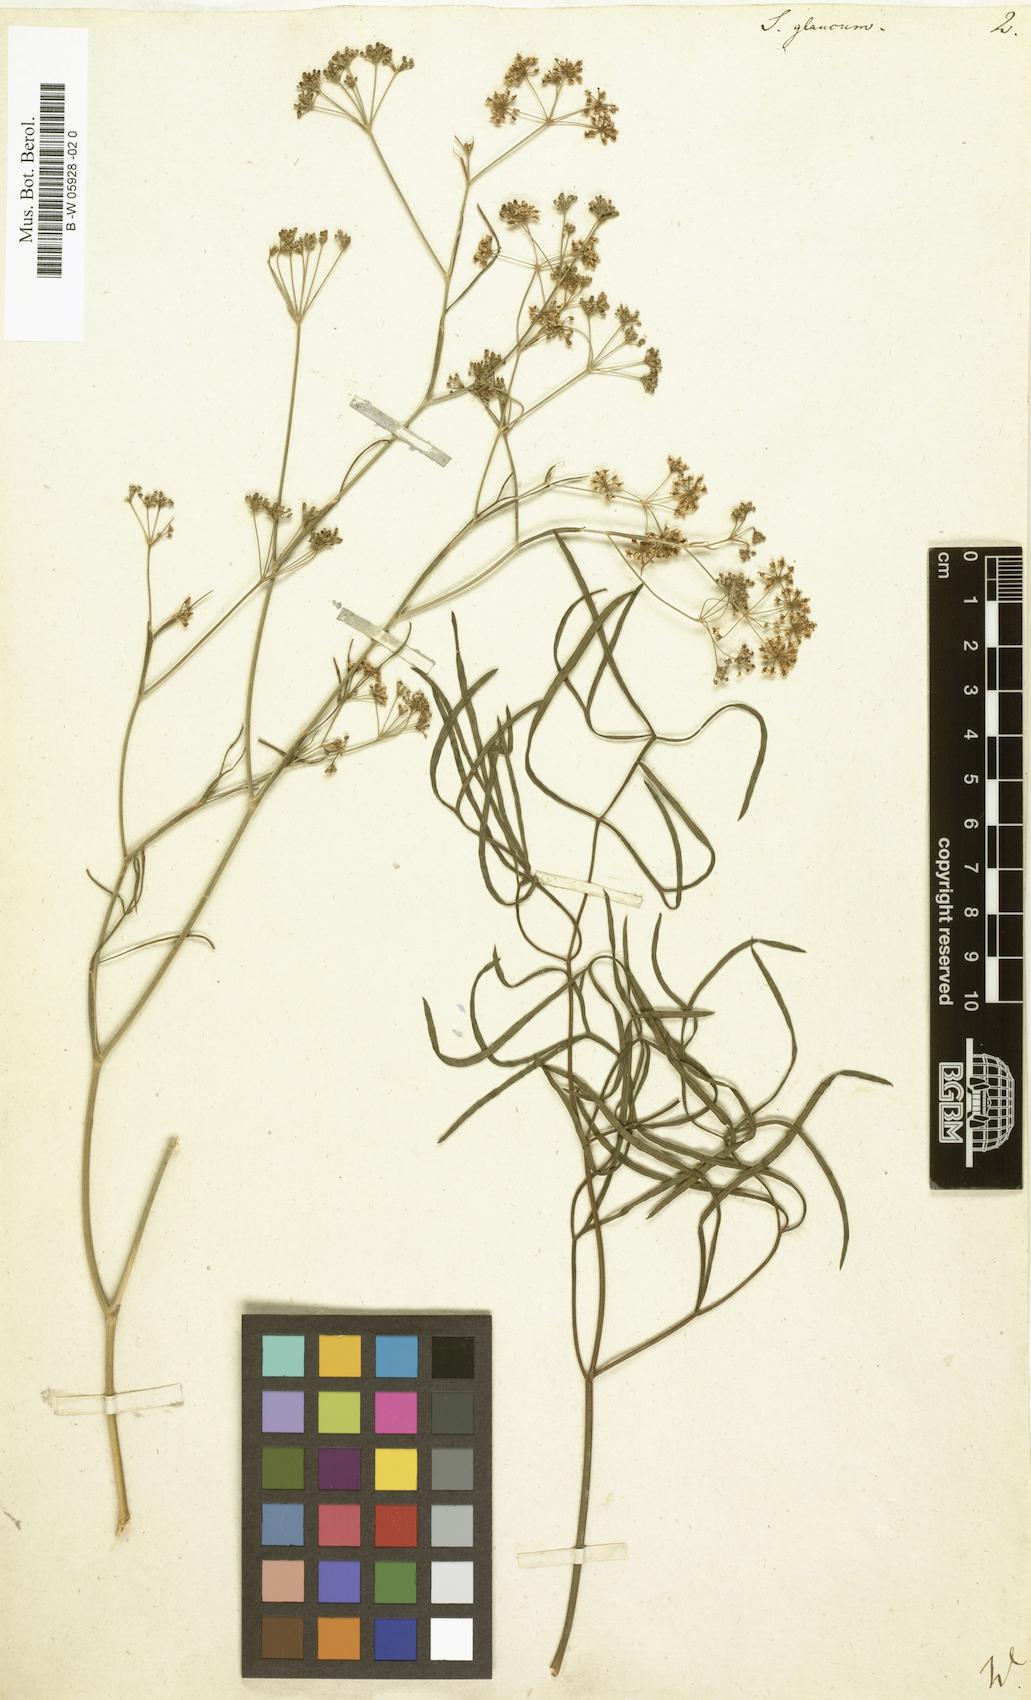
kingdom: Plantae
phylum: Tracheophyta
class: Magnoliopsida
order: Apiales
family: Apiaceae
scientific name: Apiaceae
